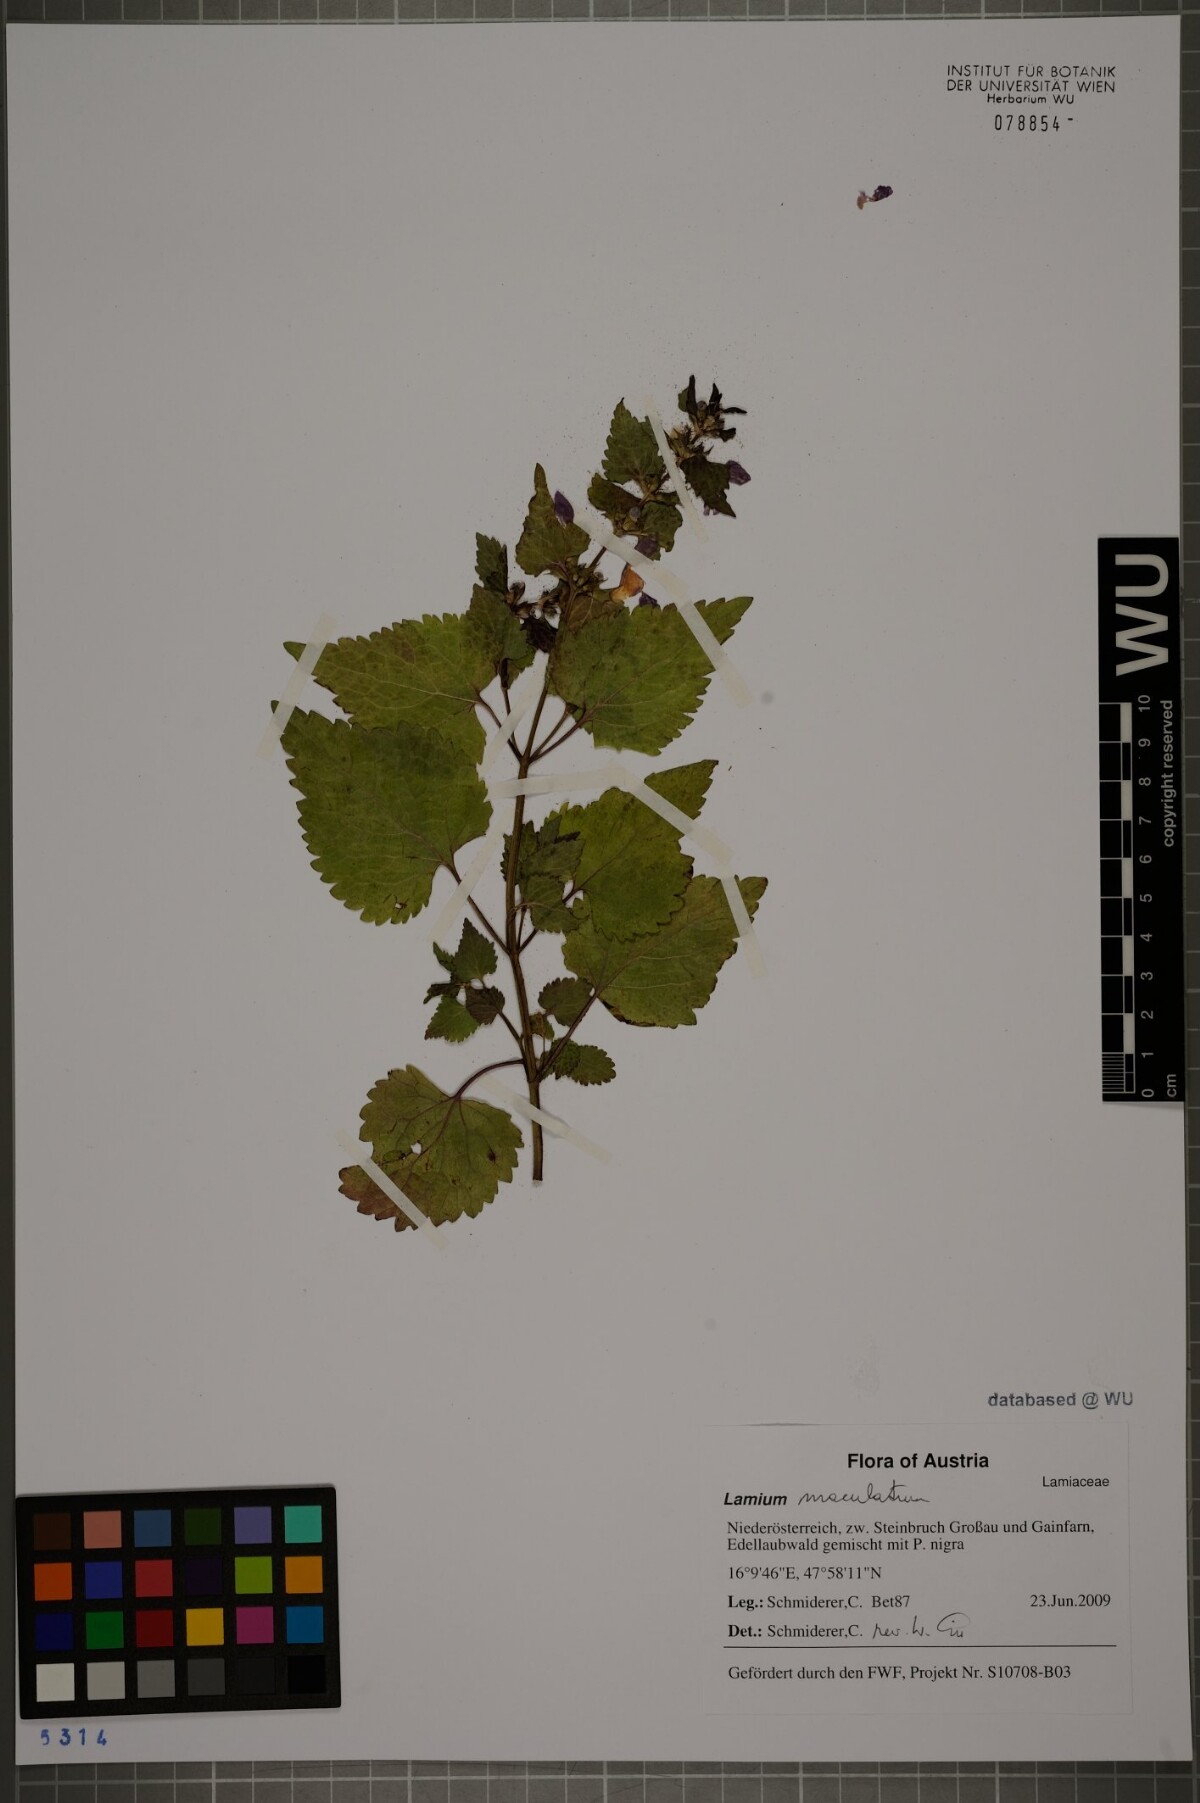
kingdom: Plantae
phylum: Tracheophyta
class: Magnoliopsida
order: Lamiales
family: Lamiaceae
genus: Lamium
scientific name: Lamium maculatum
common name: Spotted dead-nettle
